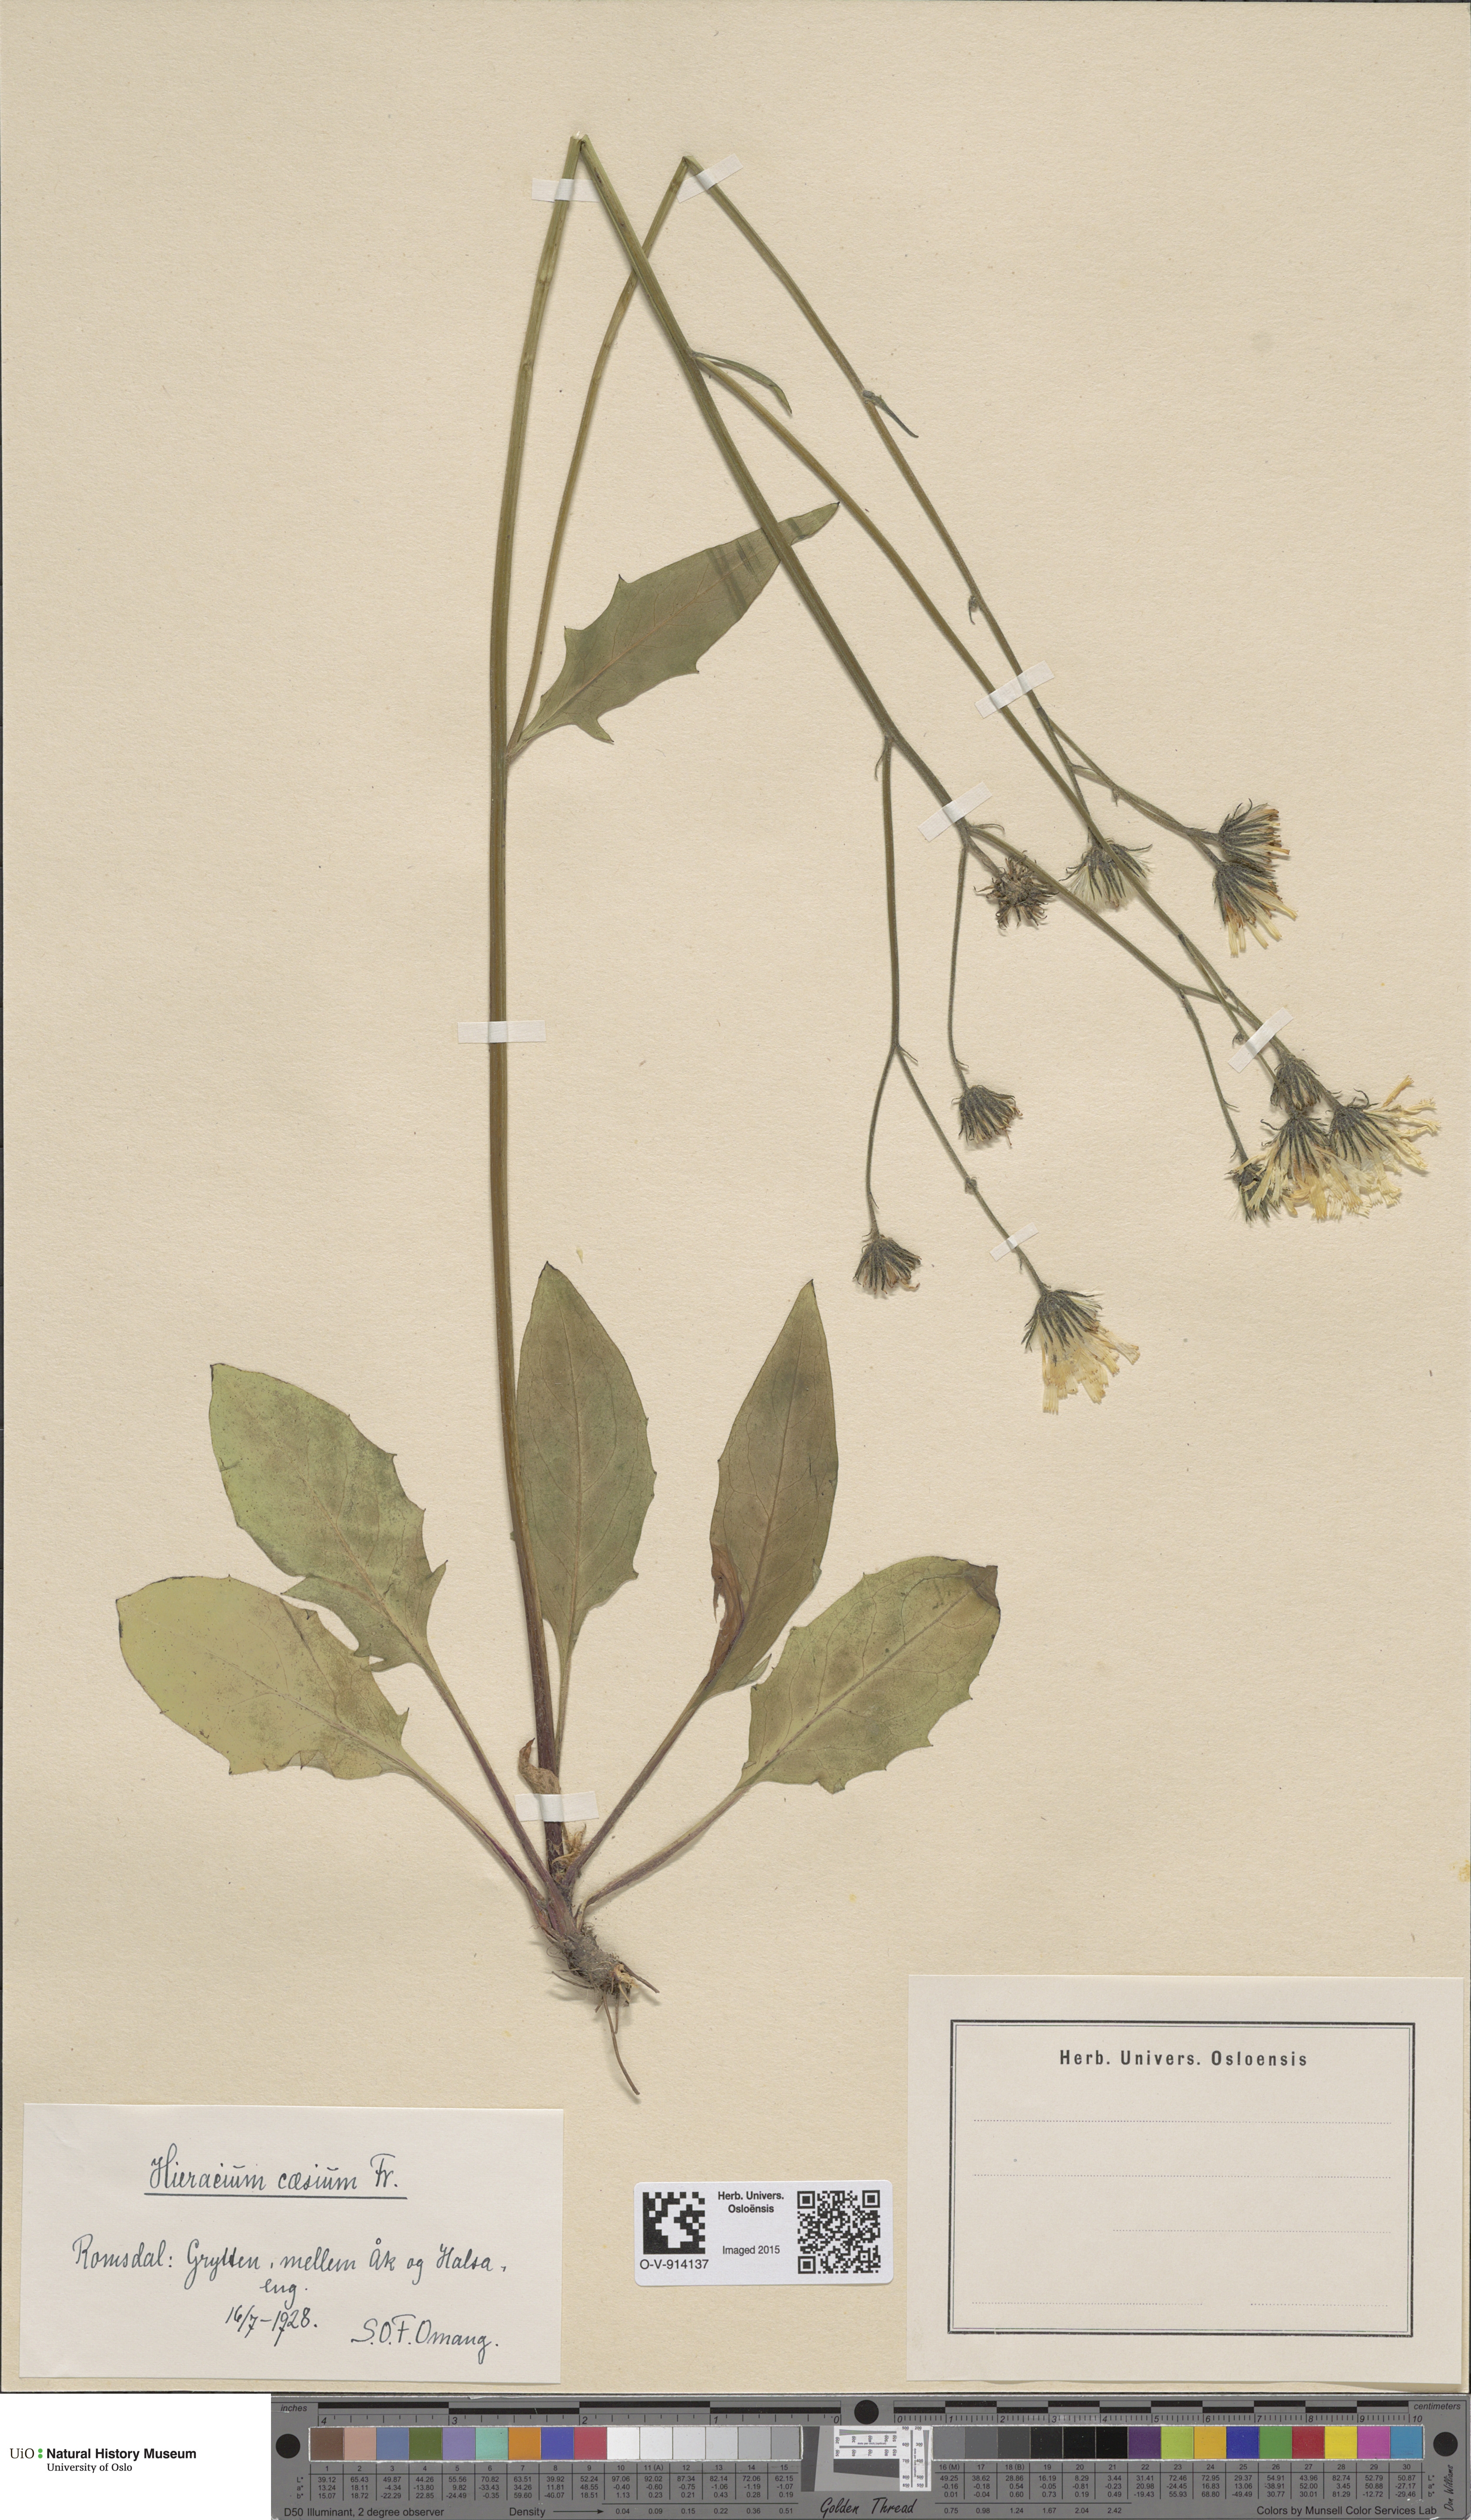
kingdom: Plantae
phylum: Tracheophyta
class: Magnoliopsida
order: Asterales
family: Asteraceae
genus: Hieracium
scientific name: Hieracium caesium
